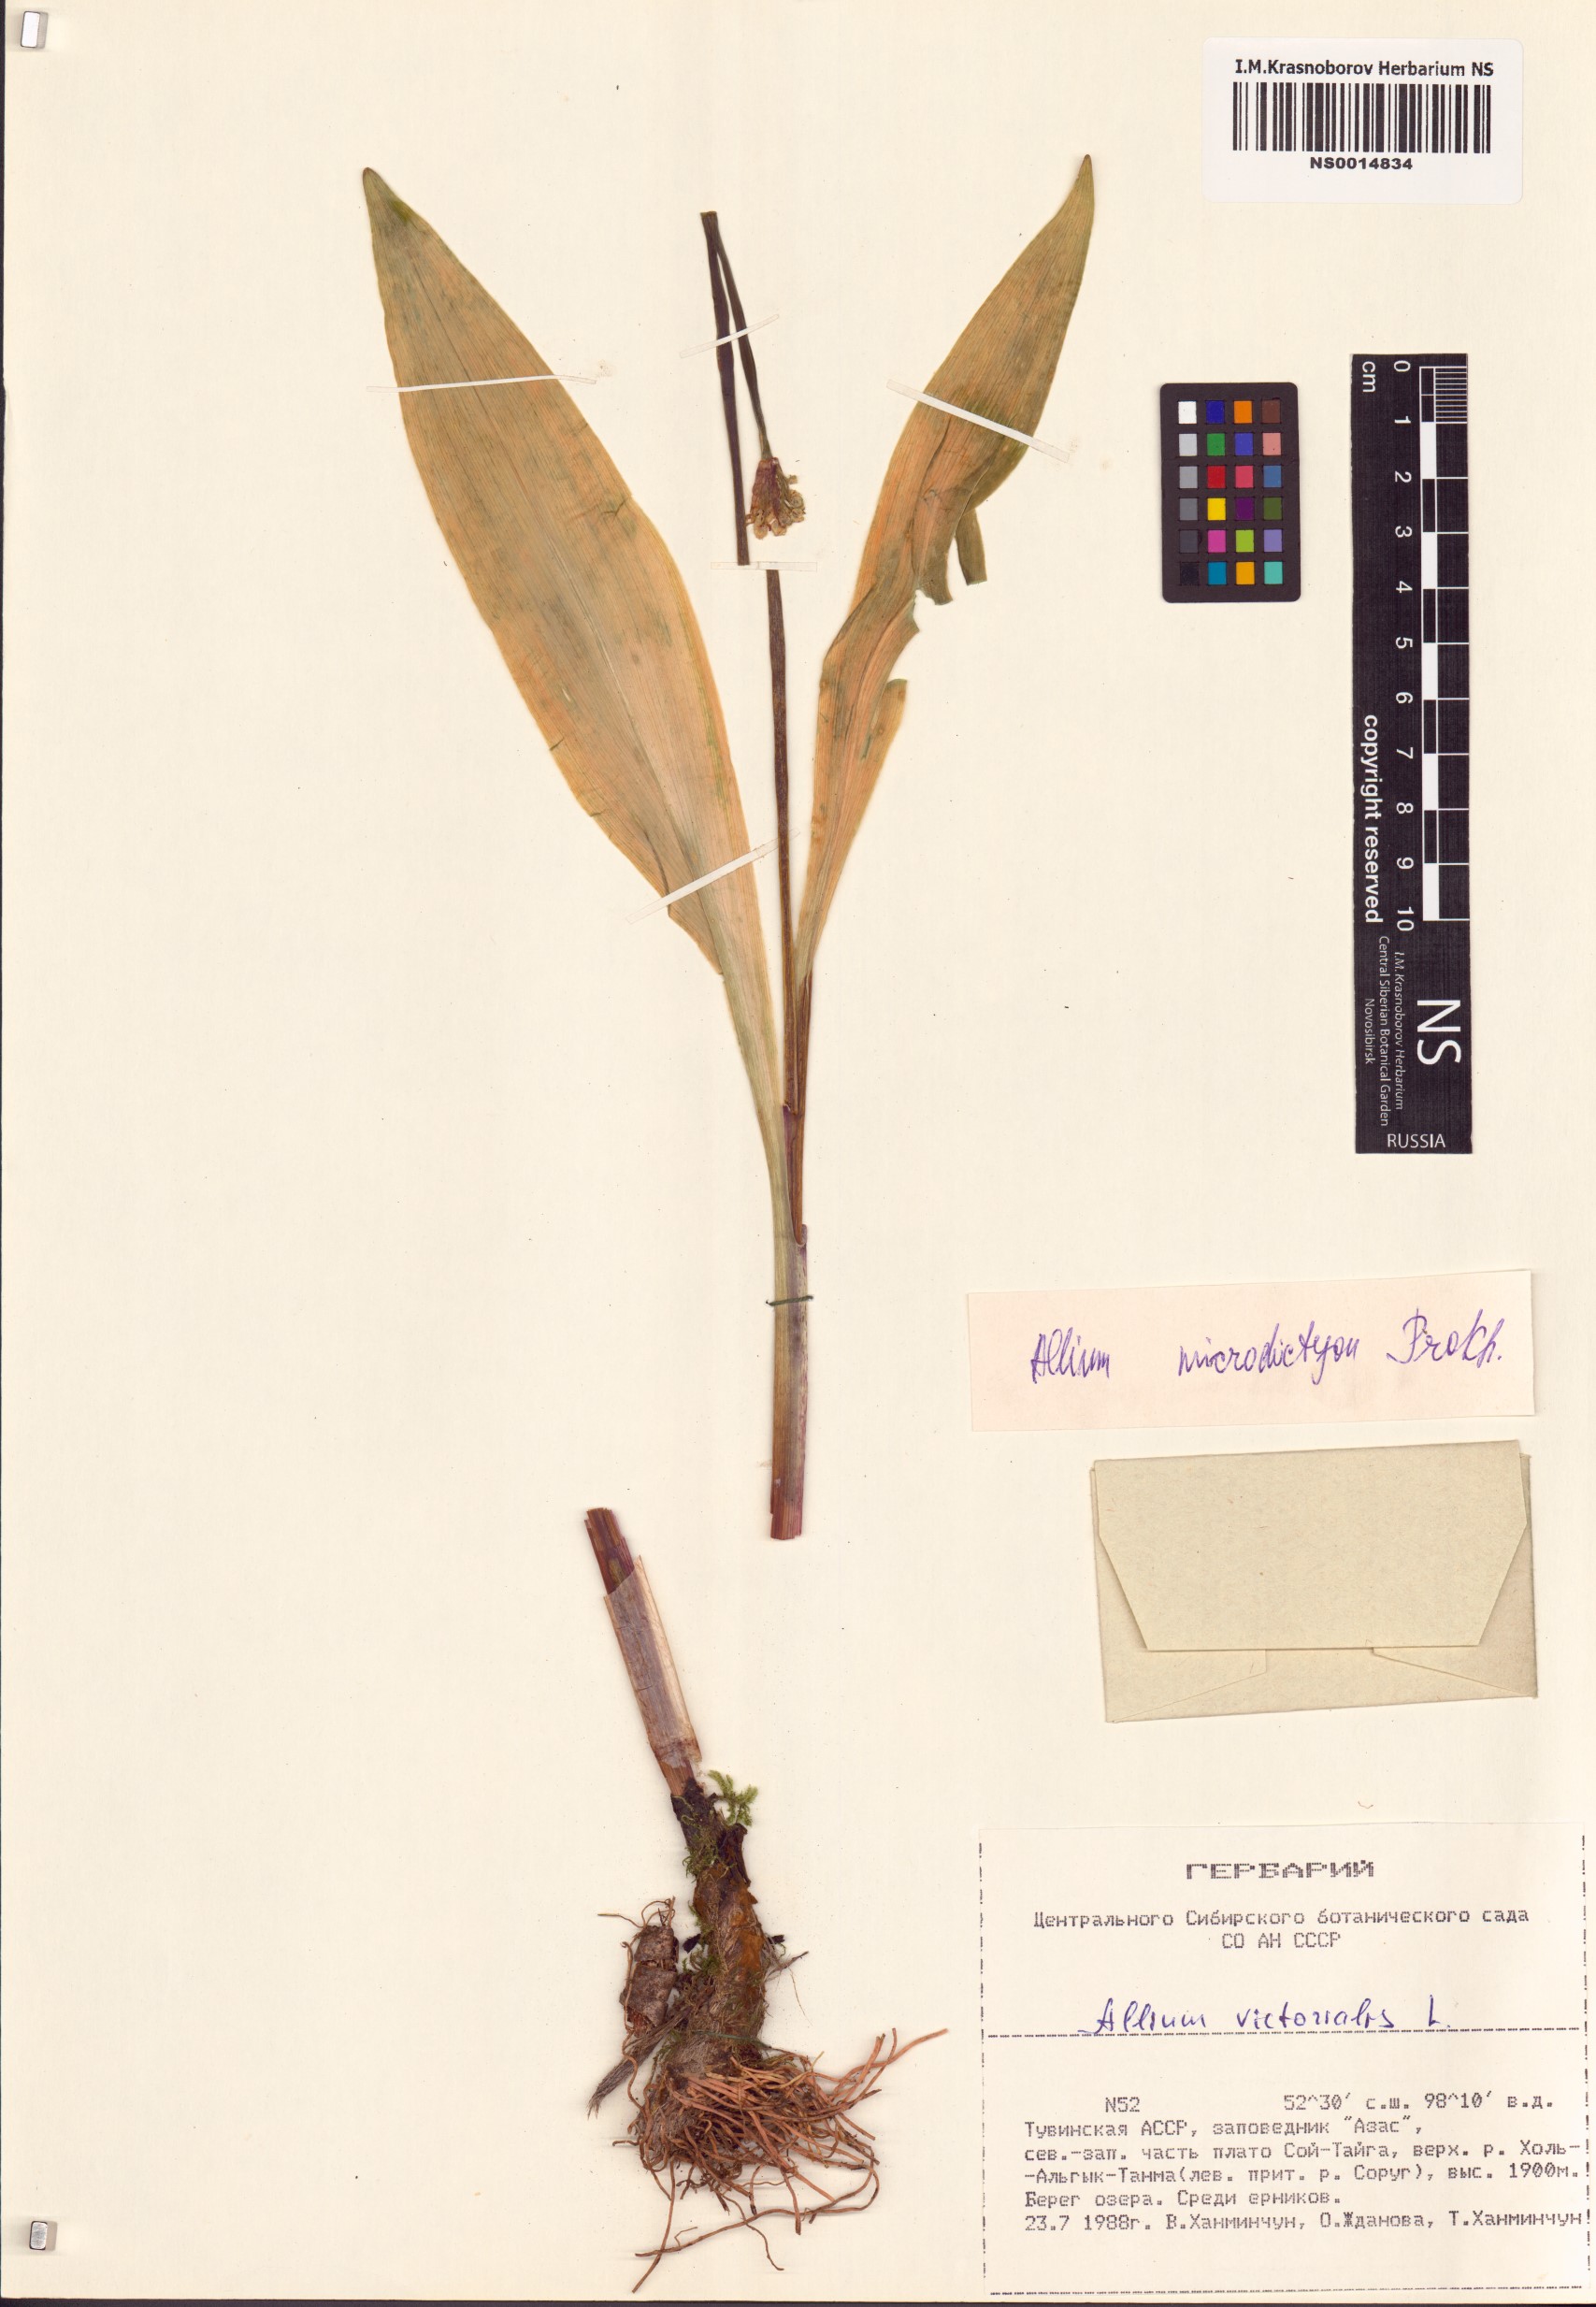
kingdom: Plantae
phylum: Tracheophyta
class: Liliopsida
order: Asparagales
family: Amaryllidaceae
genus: Allium
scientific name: Allium microdictyon
